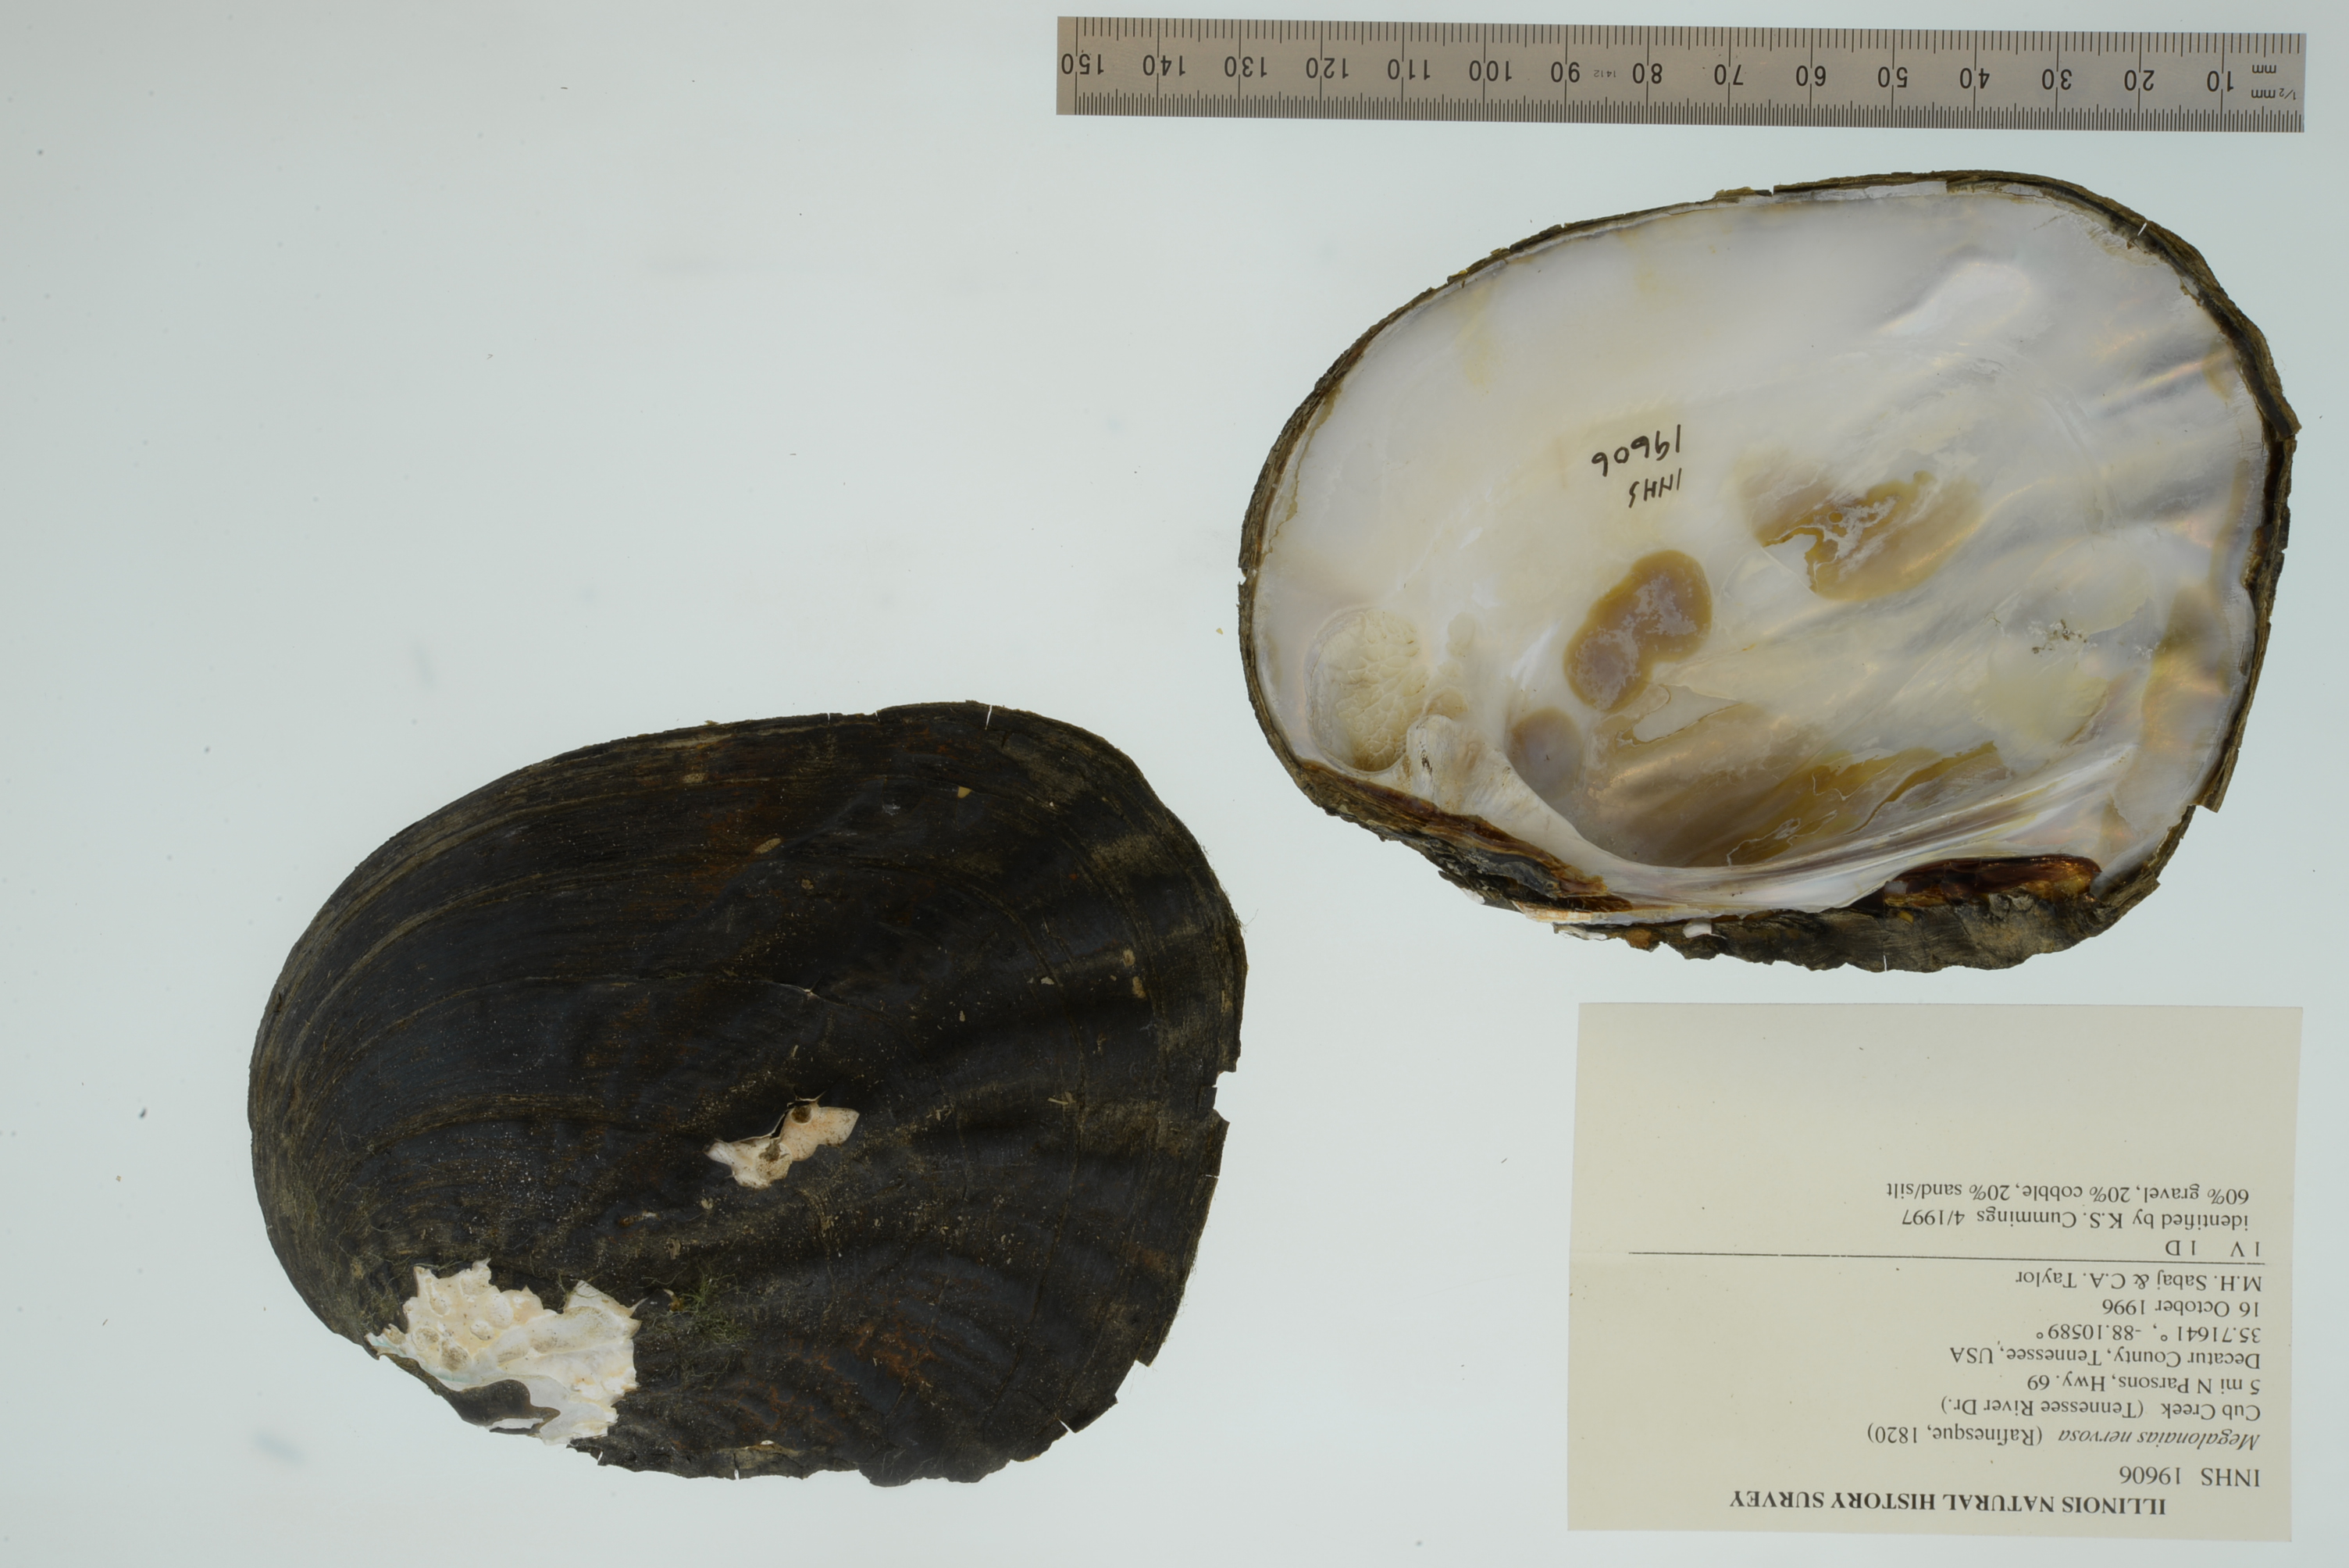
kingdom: Animalia
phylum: Mollusca
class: Bivalvia
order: Unionida
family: Unionidae
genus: Megalonaias
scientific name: Megalonaias nervosa
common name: Washboard
